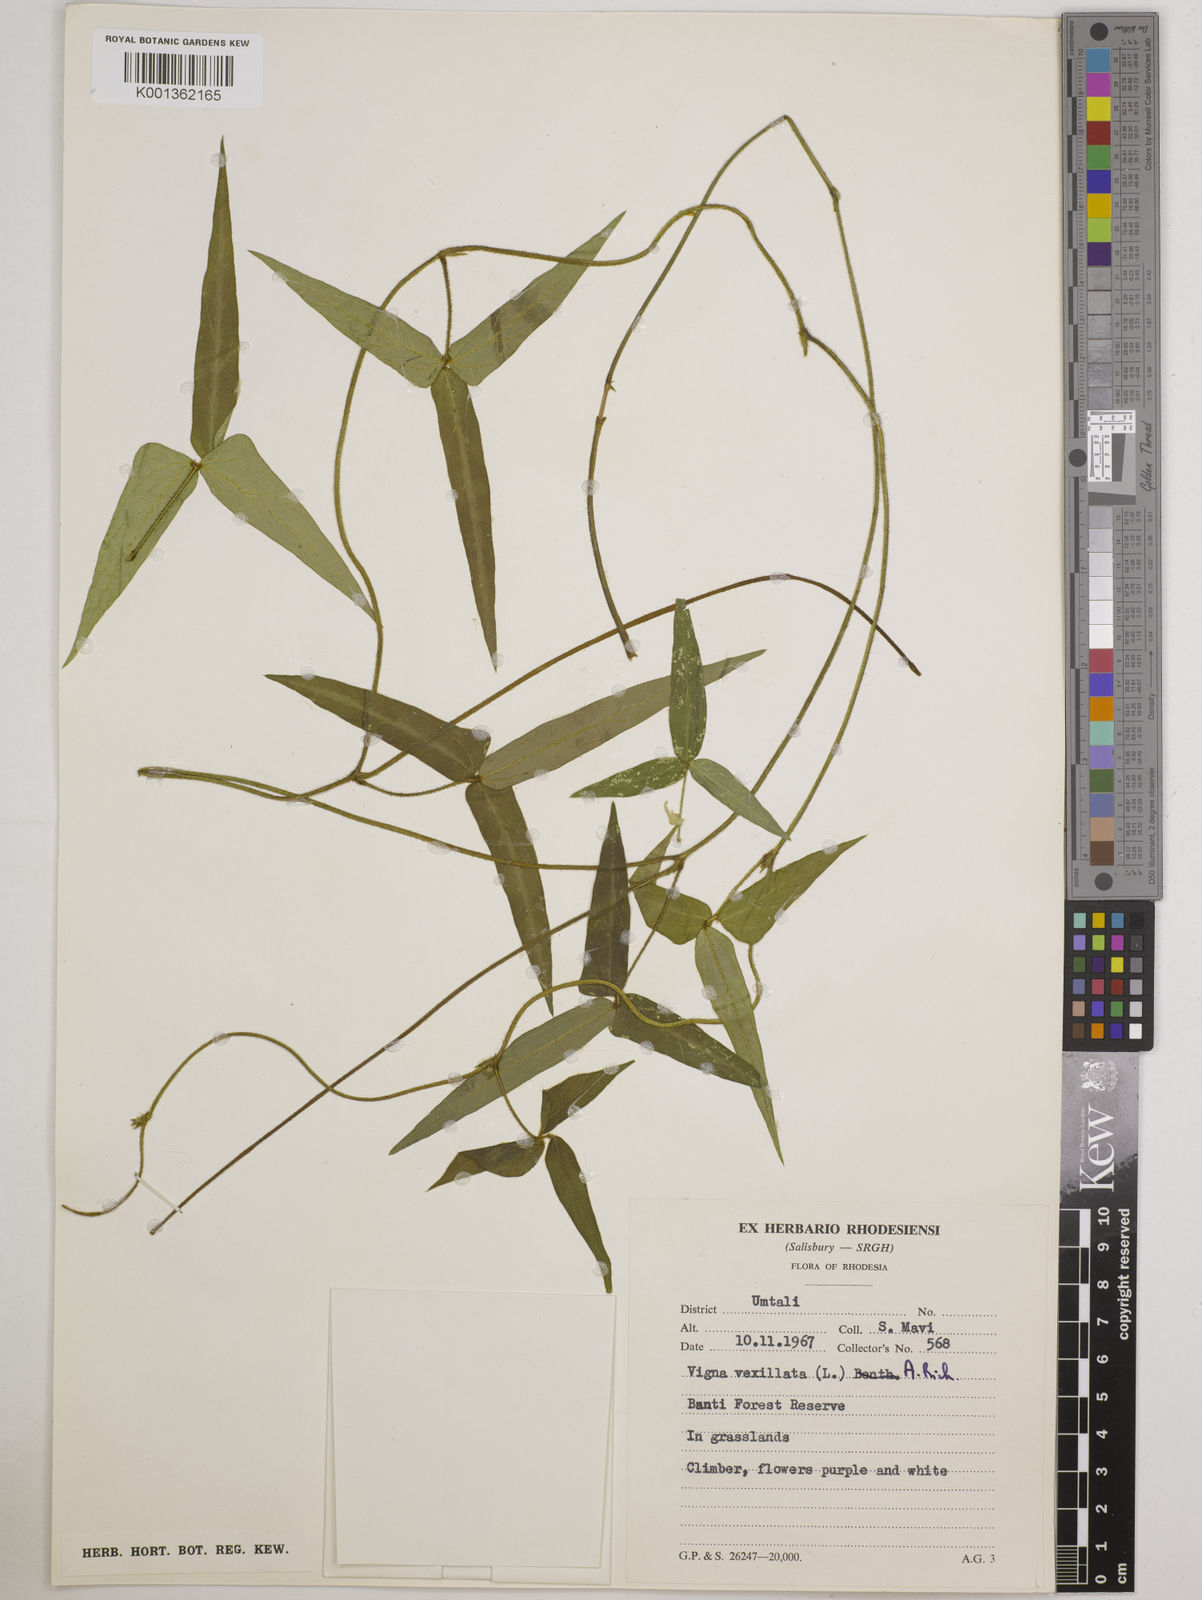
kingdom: Plantae
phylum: Tracheophyta
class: Magnoliopsida
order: Fabales
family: Fabaceae
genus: Vigna
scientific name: Vigna vexillata
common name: Zombi pea
